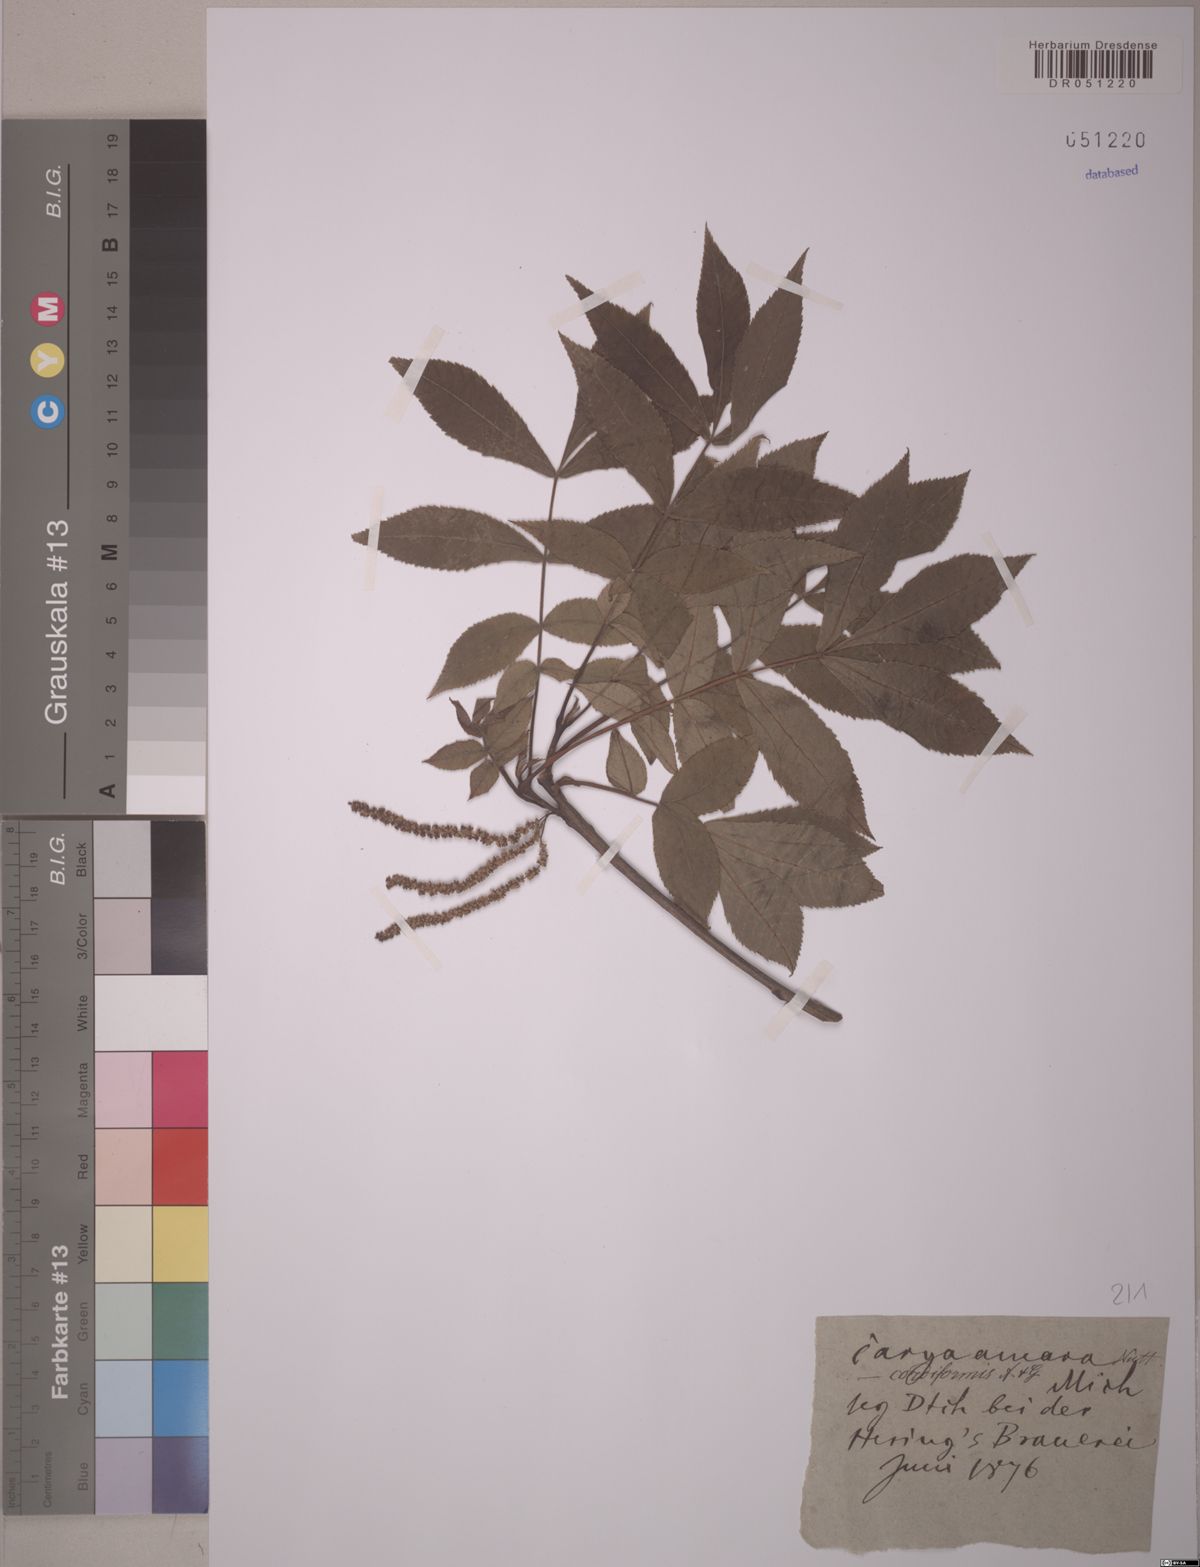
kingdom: Plantae
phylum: Tracheophyta
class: Magnoliopsida
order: Fagales
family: Juglandaceae
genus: Carya
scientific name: Carya cordiformis
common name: Bitternut hickory
